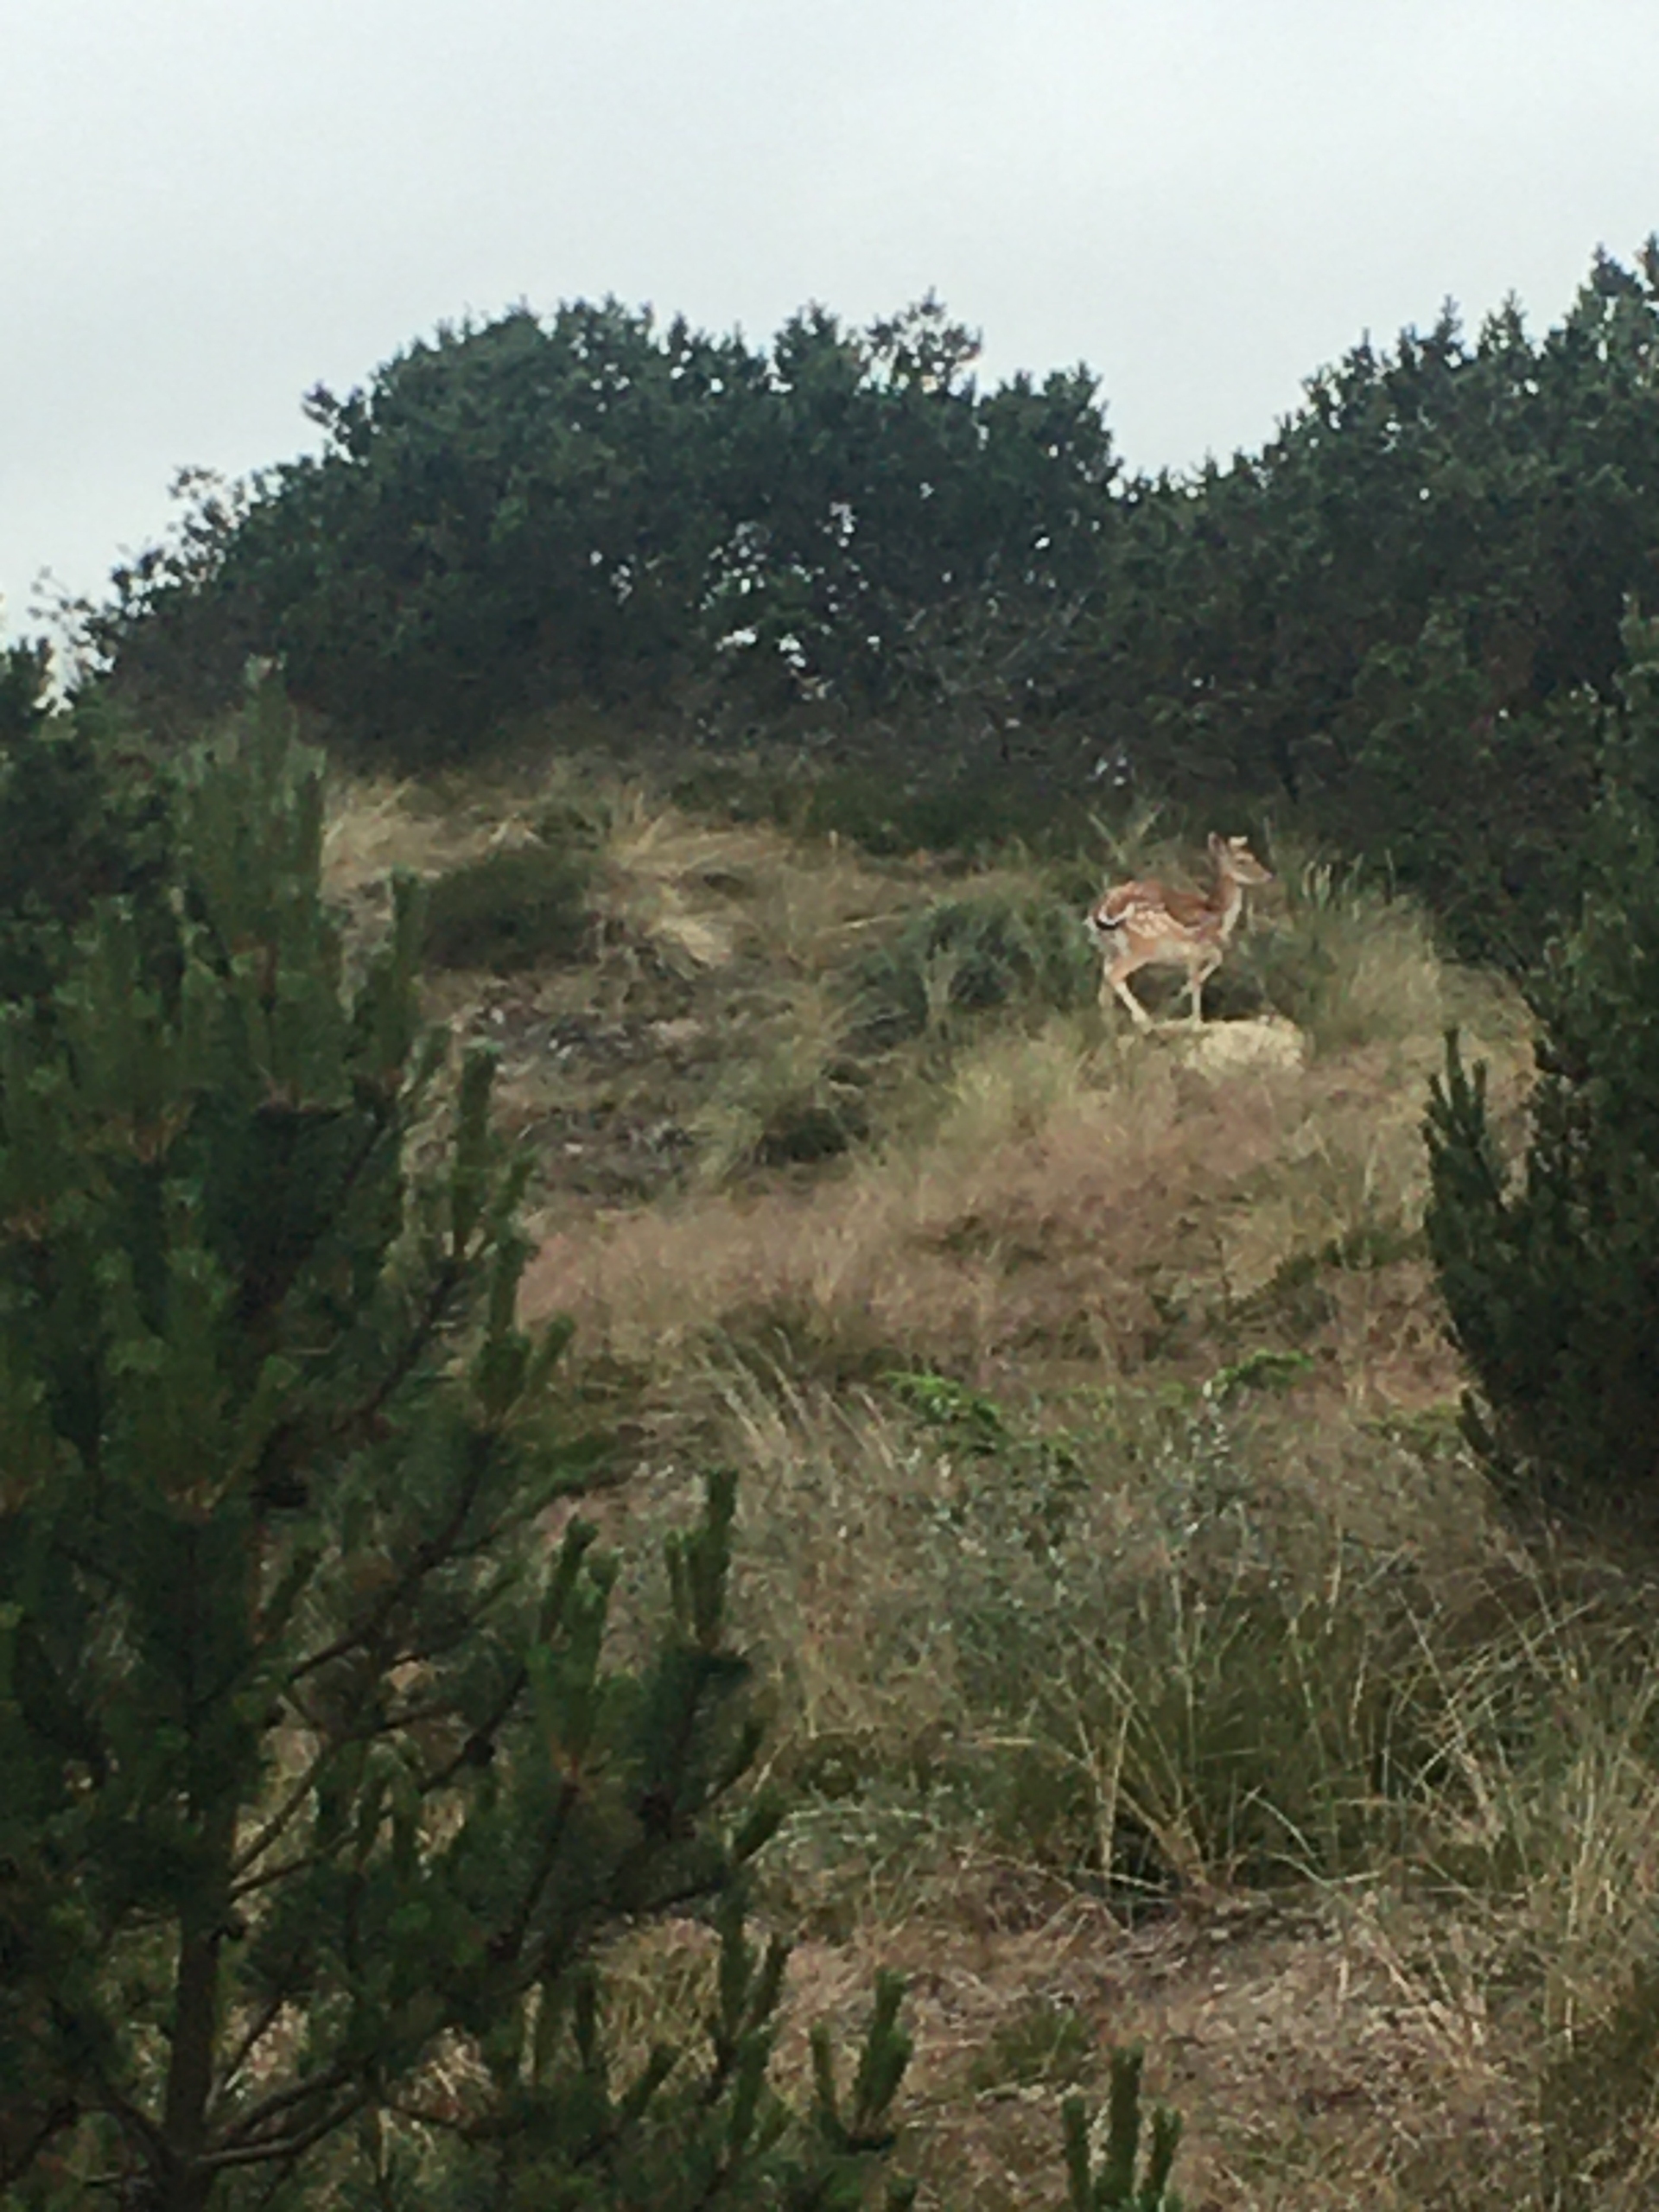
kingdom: Animalia
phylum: Chordata
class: Mammalia
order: Artiodactyla
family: Cervidae
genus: Dama
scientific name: Dama dama
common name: Dådyr
